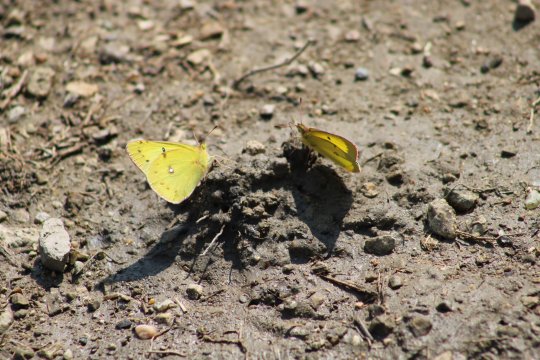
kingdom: Animalia
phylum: Arthropoda
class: Insecta
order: Lepidoptera
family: Pieridae
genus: Colias
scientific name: Colias philodice
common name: Clouded Sulphur
